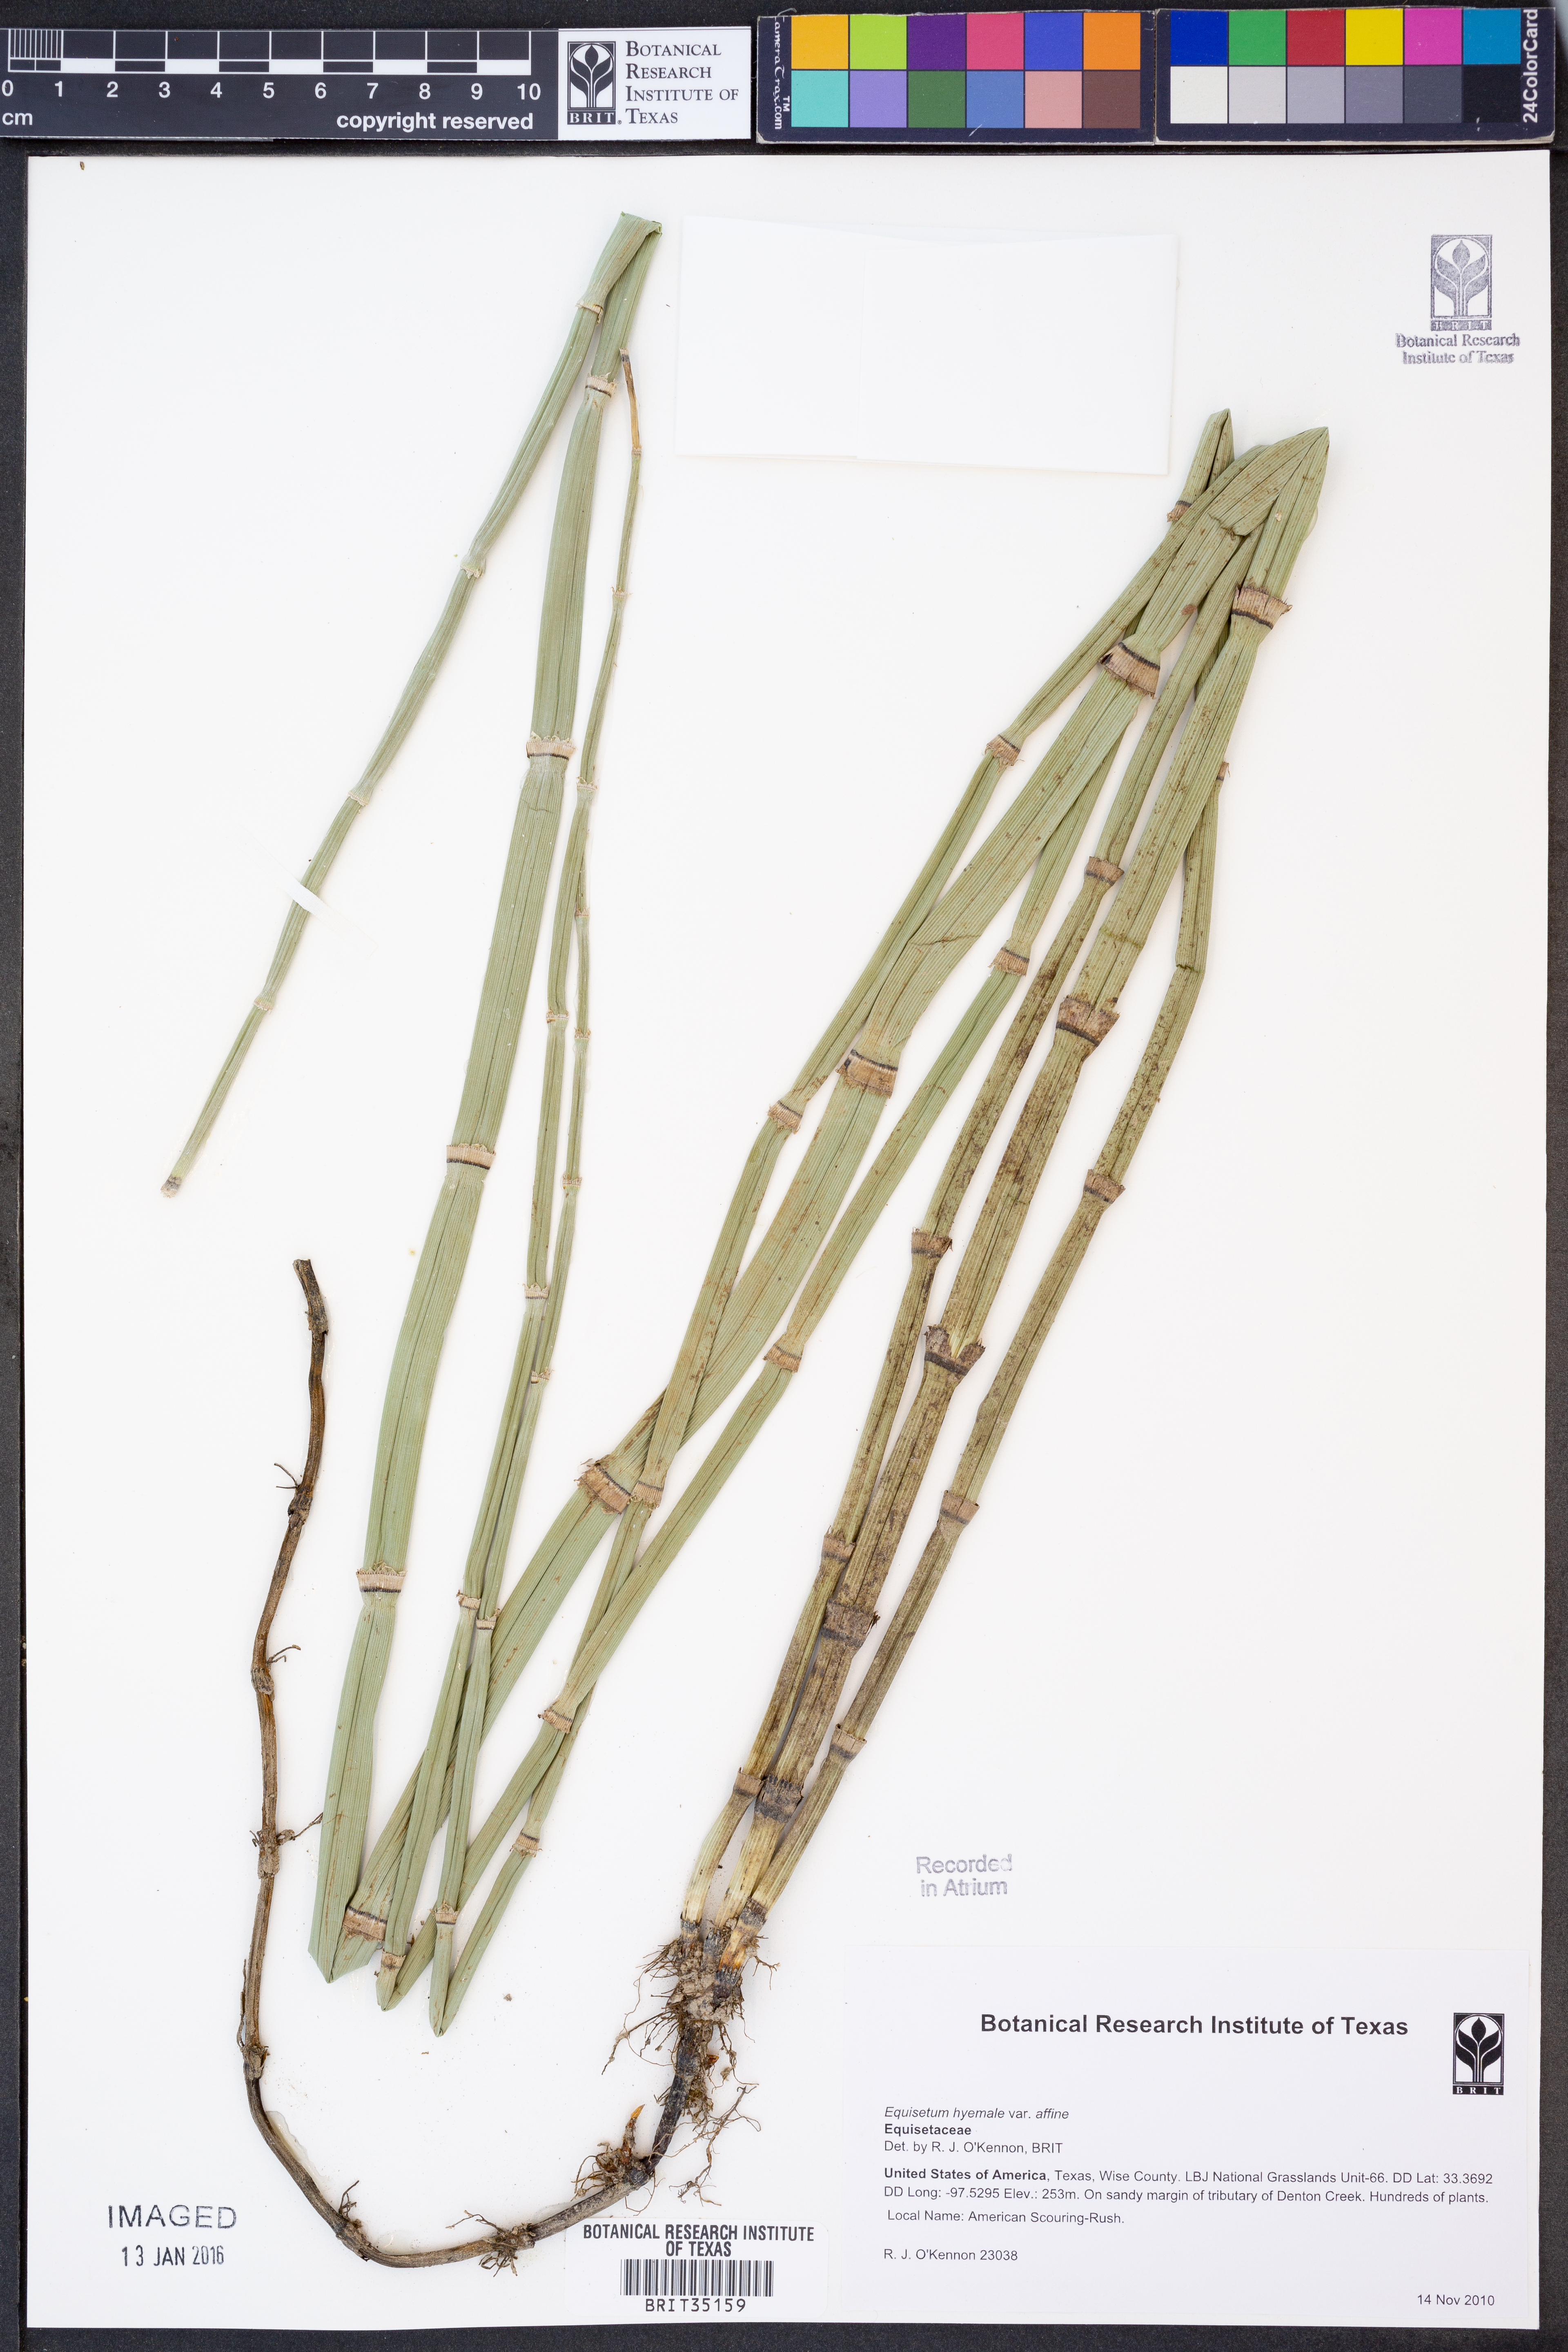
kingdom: Plantae
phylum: Tracheophyta
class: Polypodiopsida
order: Equisetales
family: Equisetaceae
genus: Equisetum
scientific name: Equisetum praealtum
